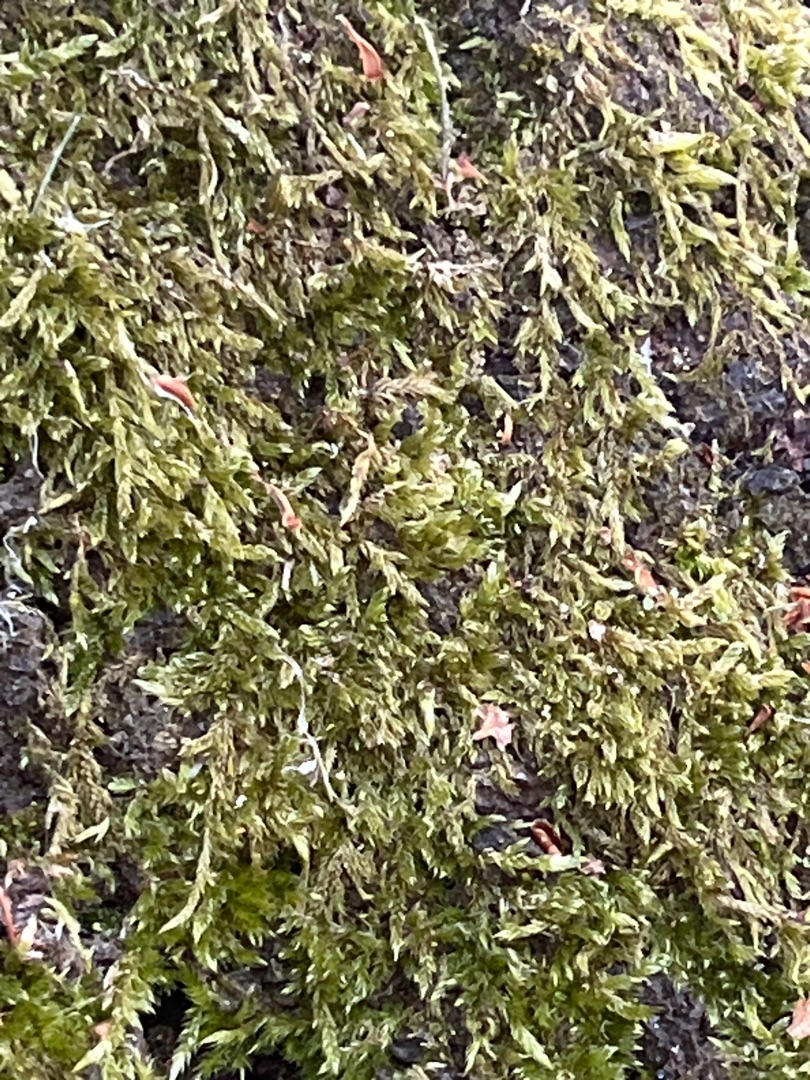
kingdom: Plantae
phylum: Bryophyta
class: Bryopsida
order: Hypnales
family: Hypnaceae
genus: Hypnum
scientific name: Hypnum cupressiforme
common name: Almindelig cypresmos
